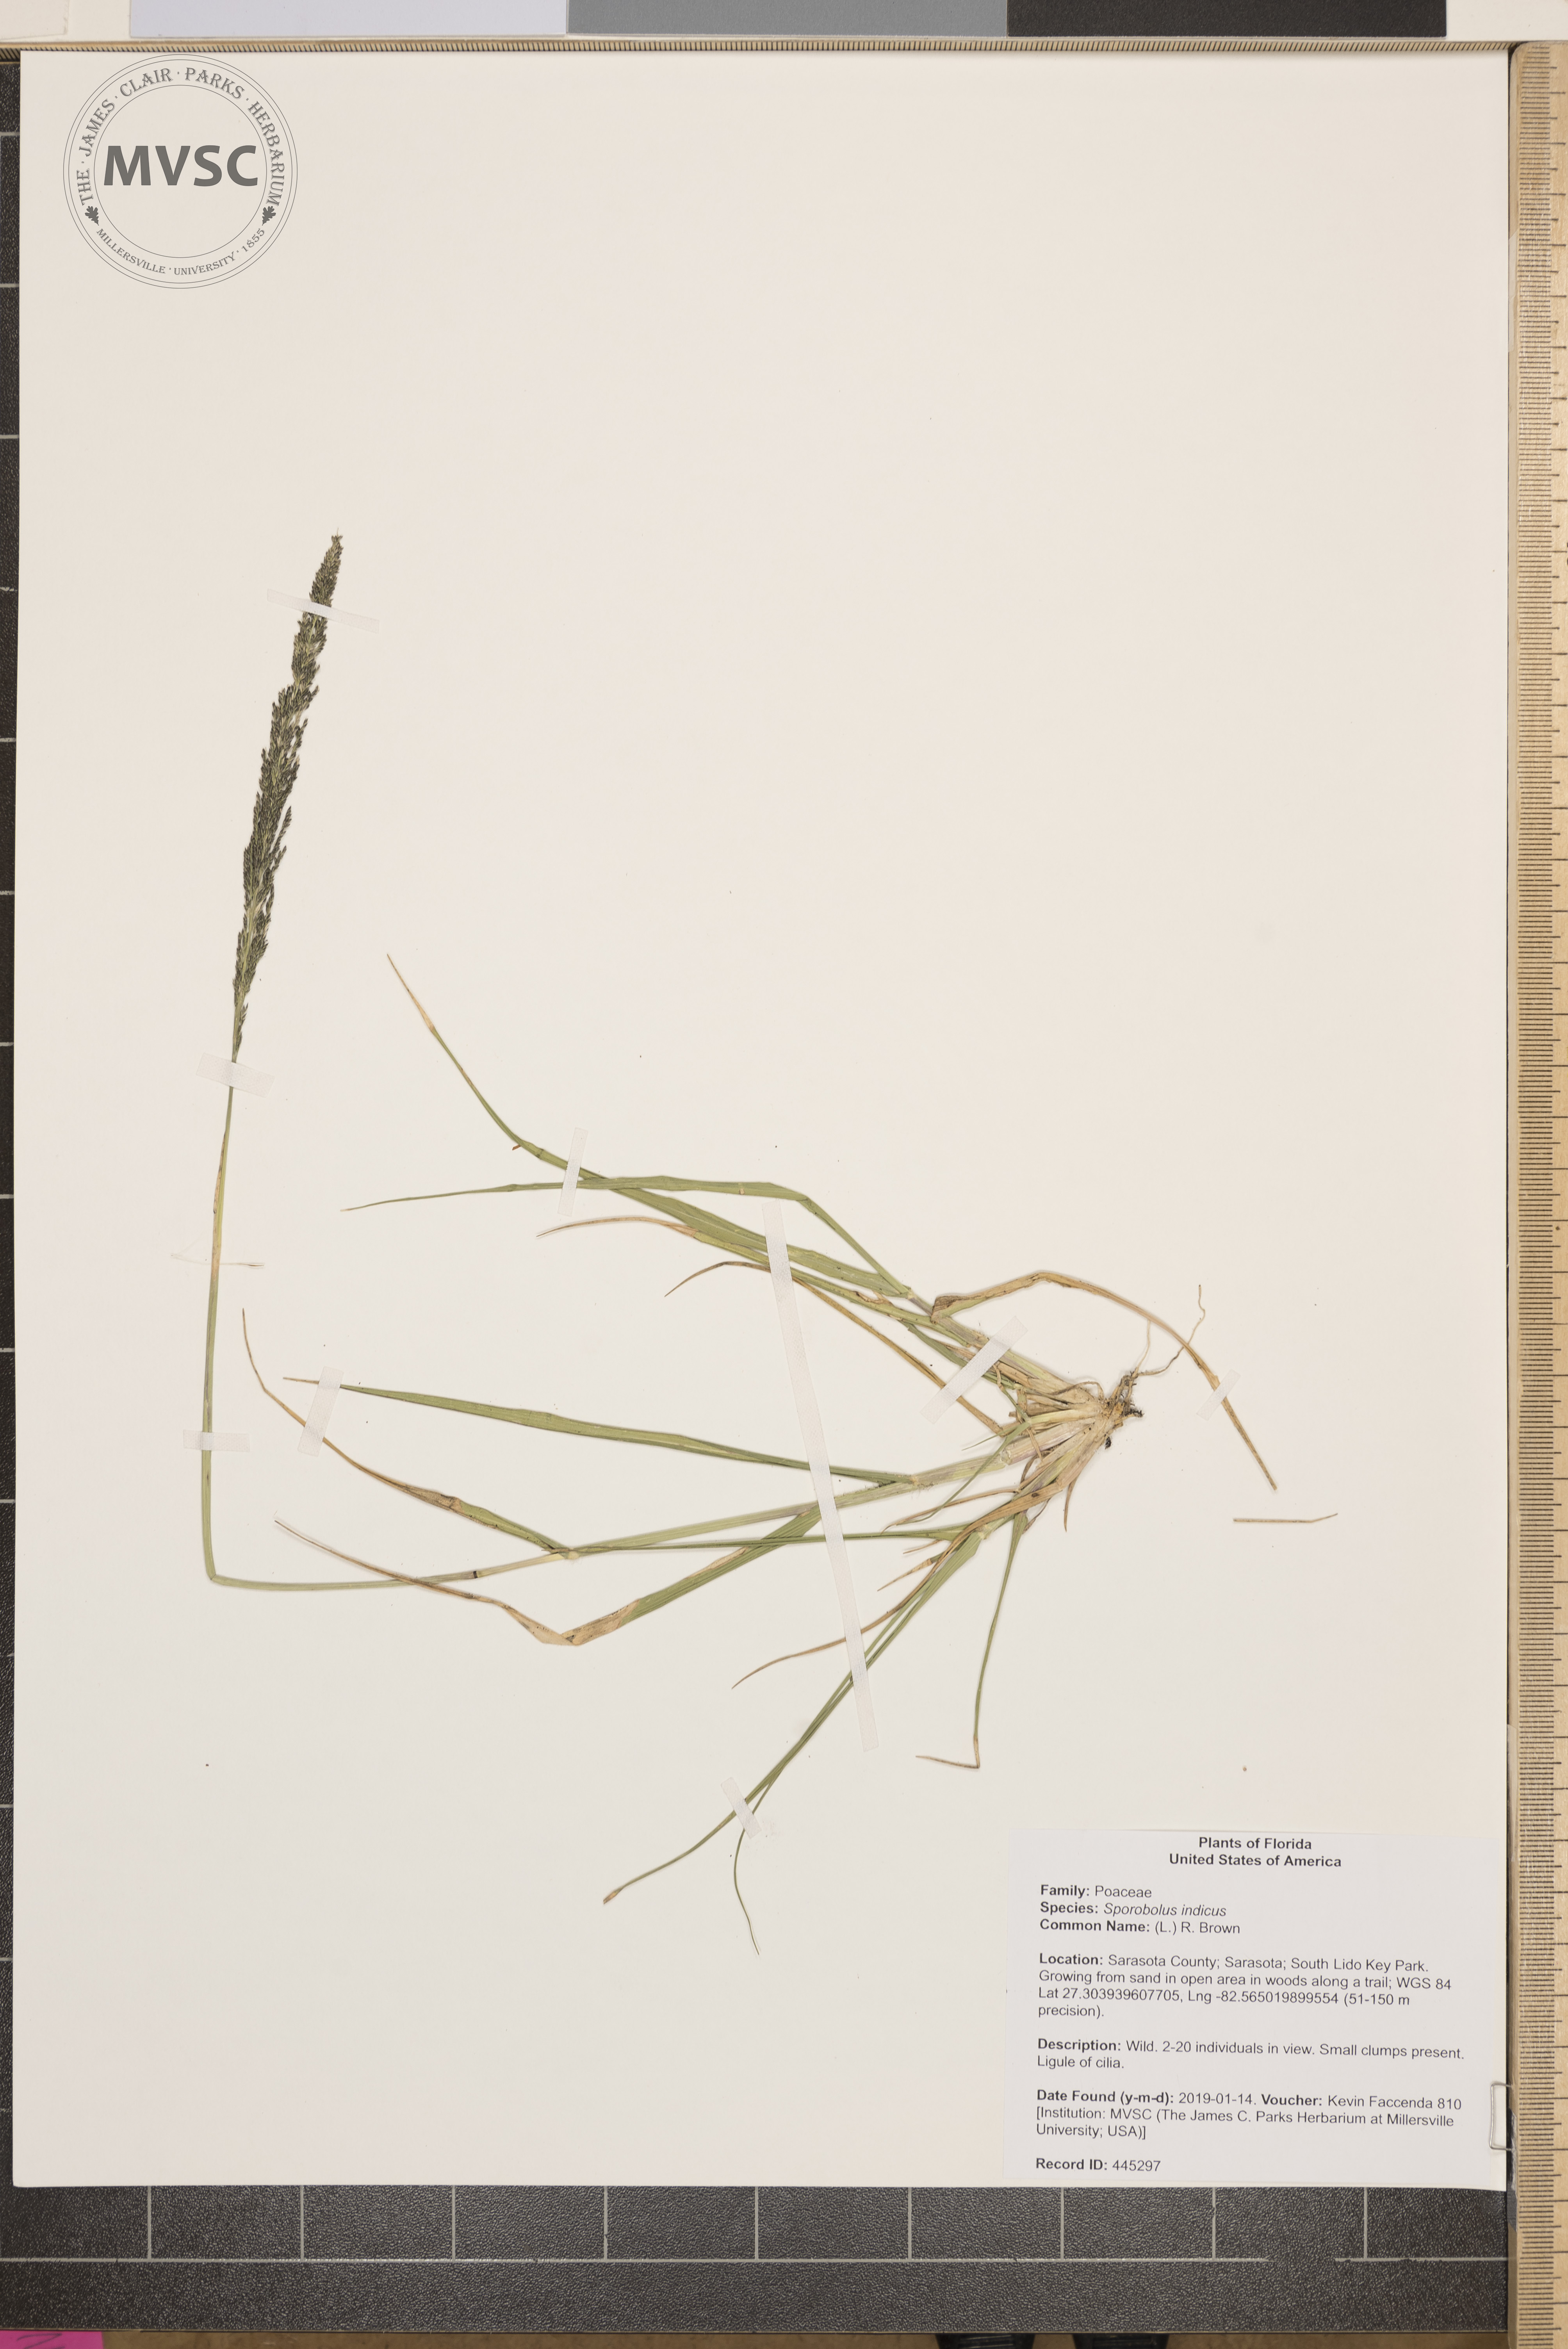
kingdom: Plantae
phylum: Tracheophyta
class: Liliopsida
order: Poales
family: Poaceae
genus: Sporobolus
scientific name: Sporobolus indicus
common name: Smut grass
